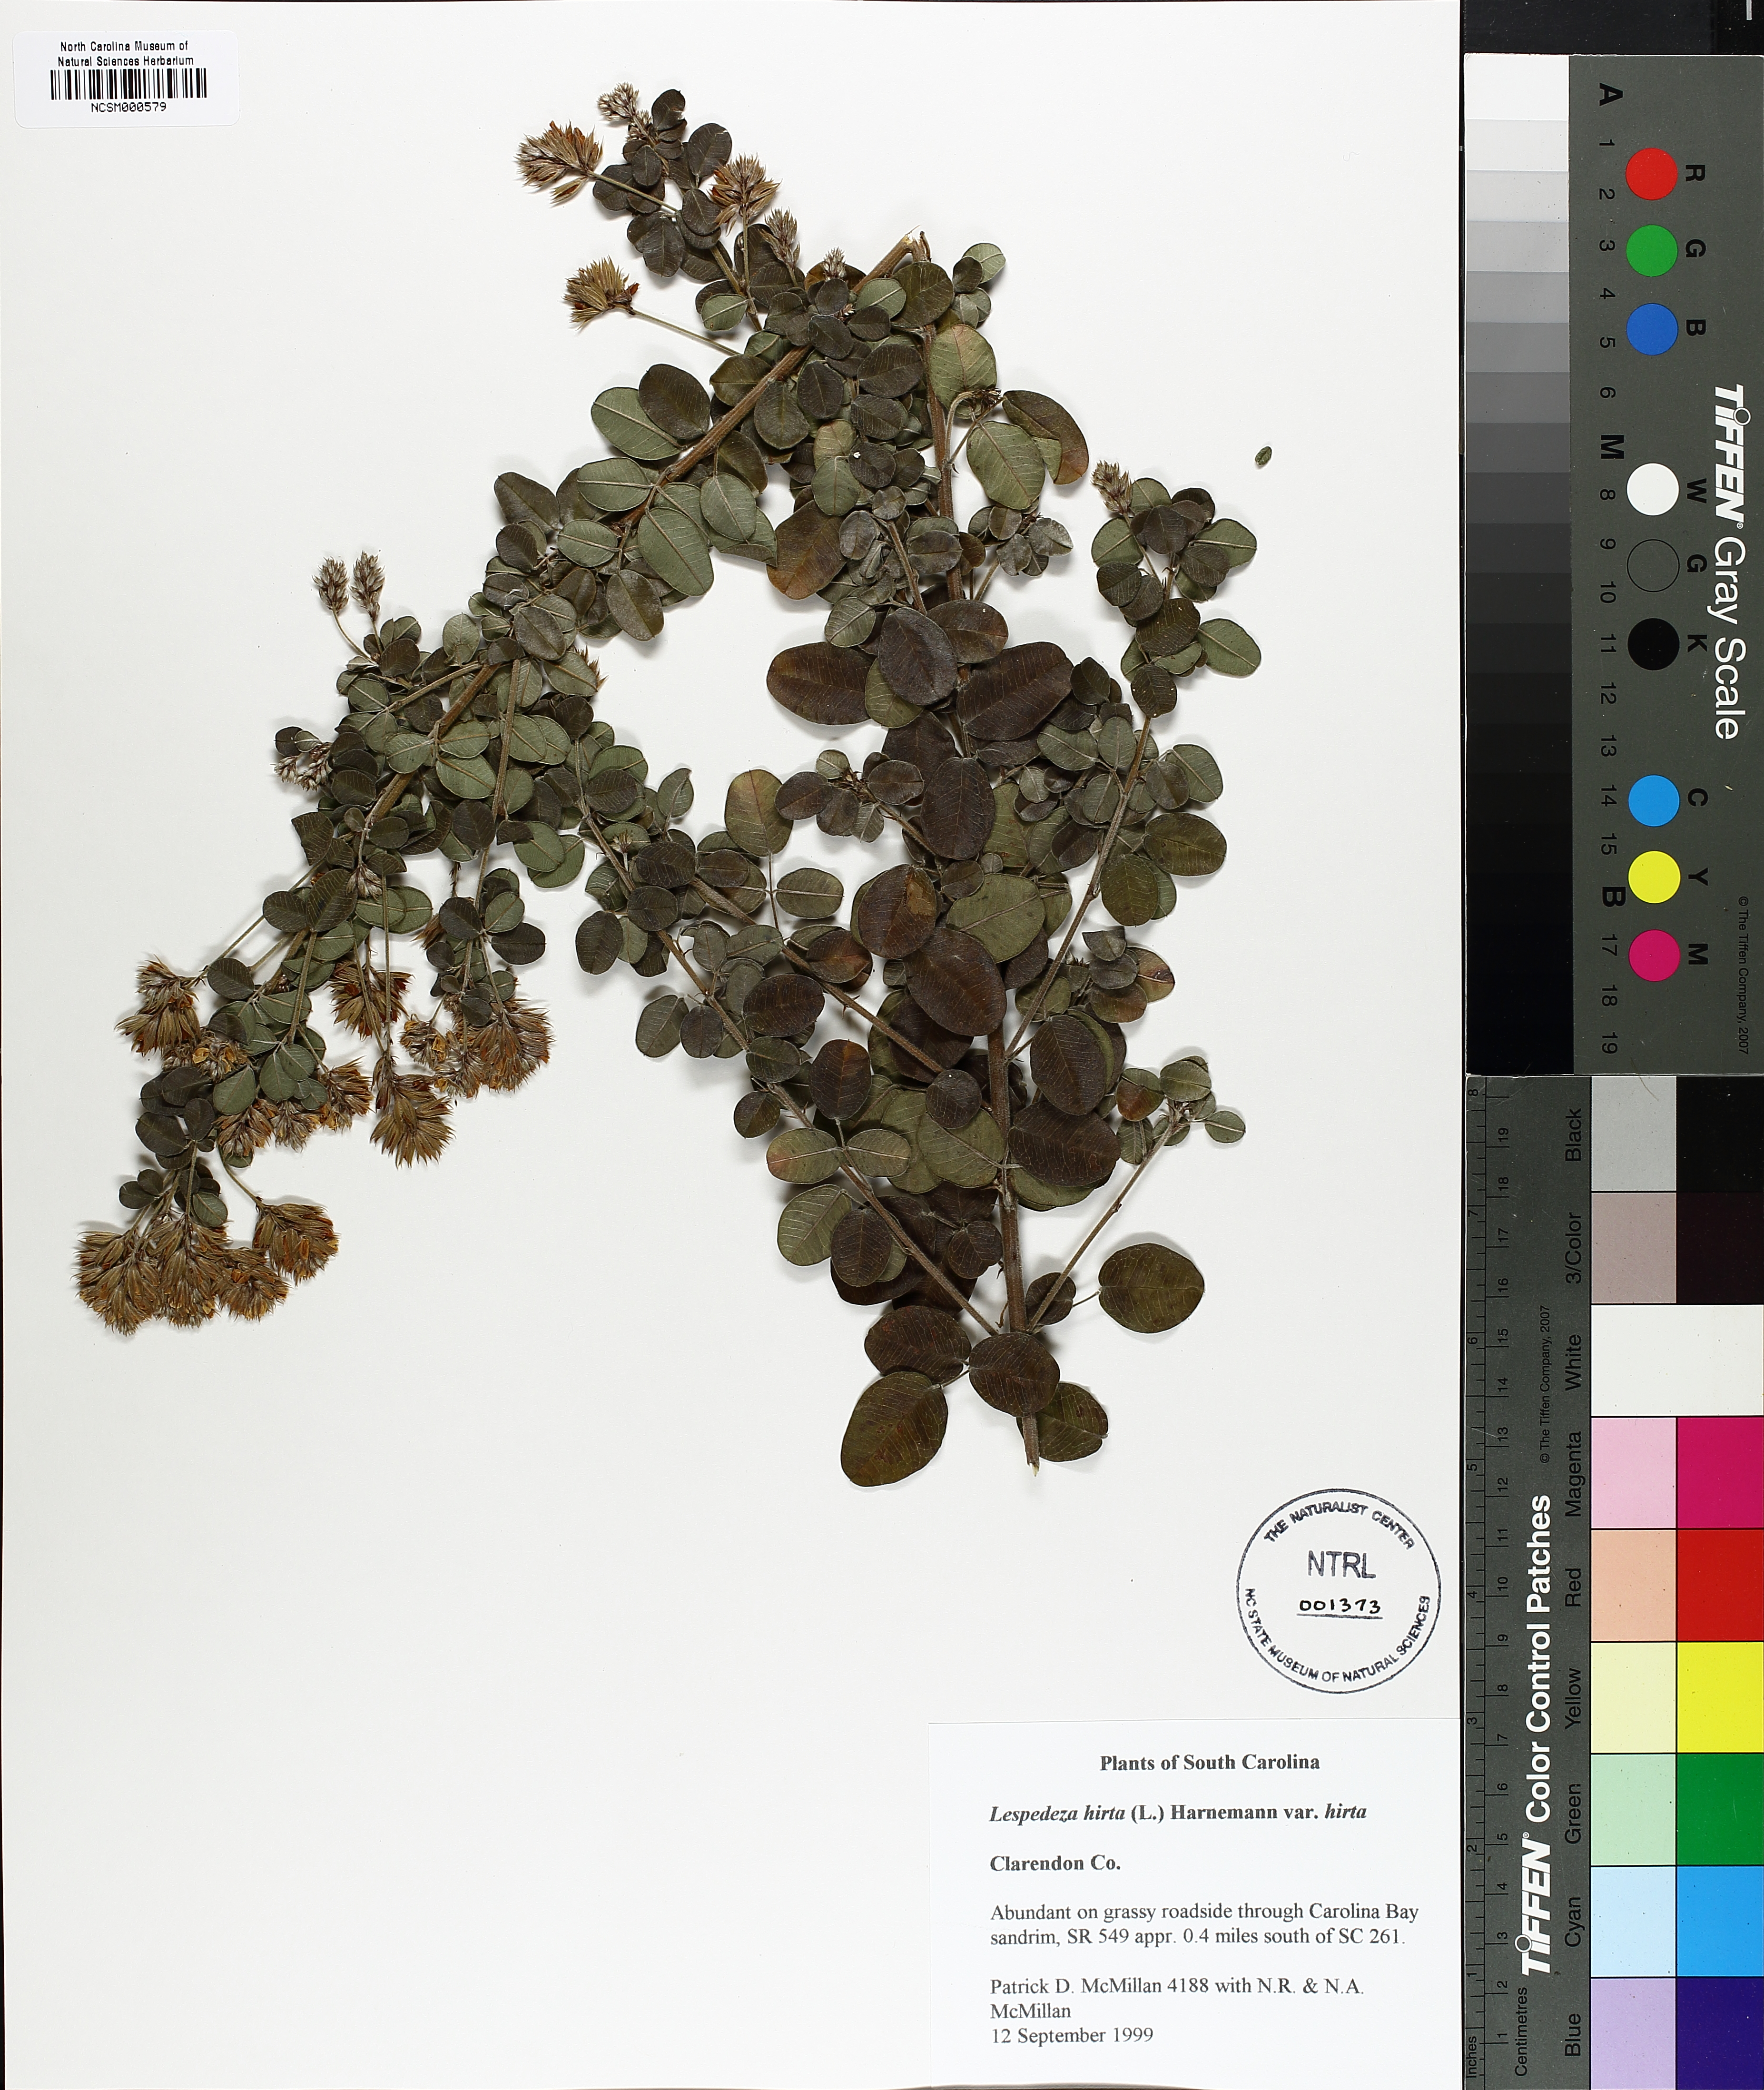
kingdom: Plantae
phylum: Tracheophyta
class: Magnoliopsida
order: Fabales
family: Fabaceae
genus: Lespedeza
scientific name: Lespedeza hirta
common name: Hairy lespedeza
